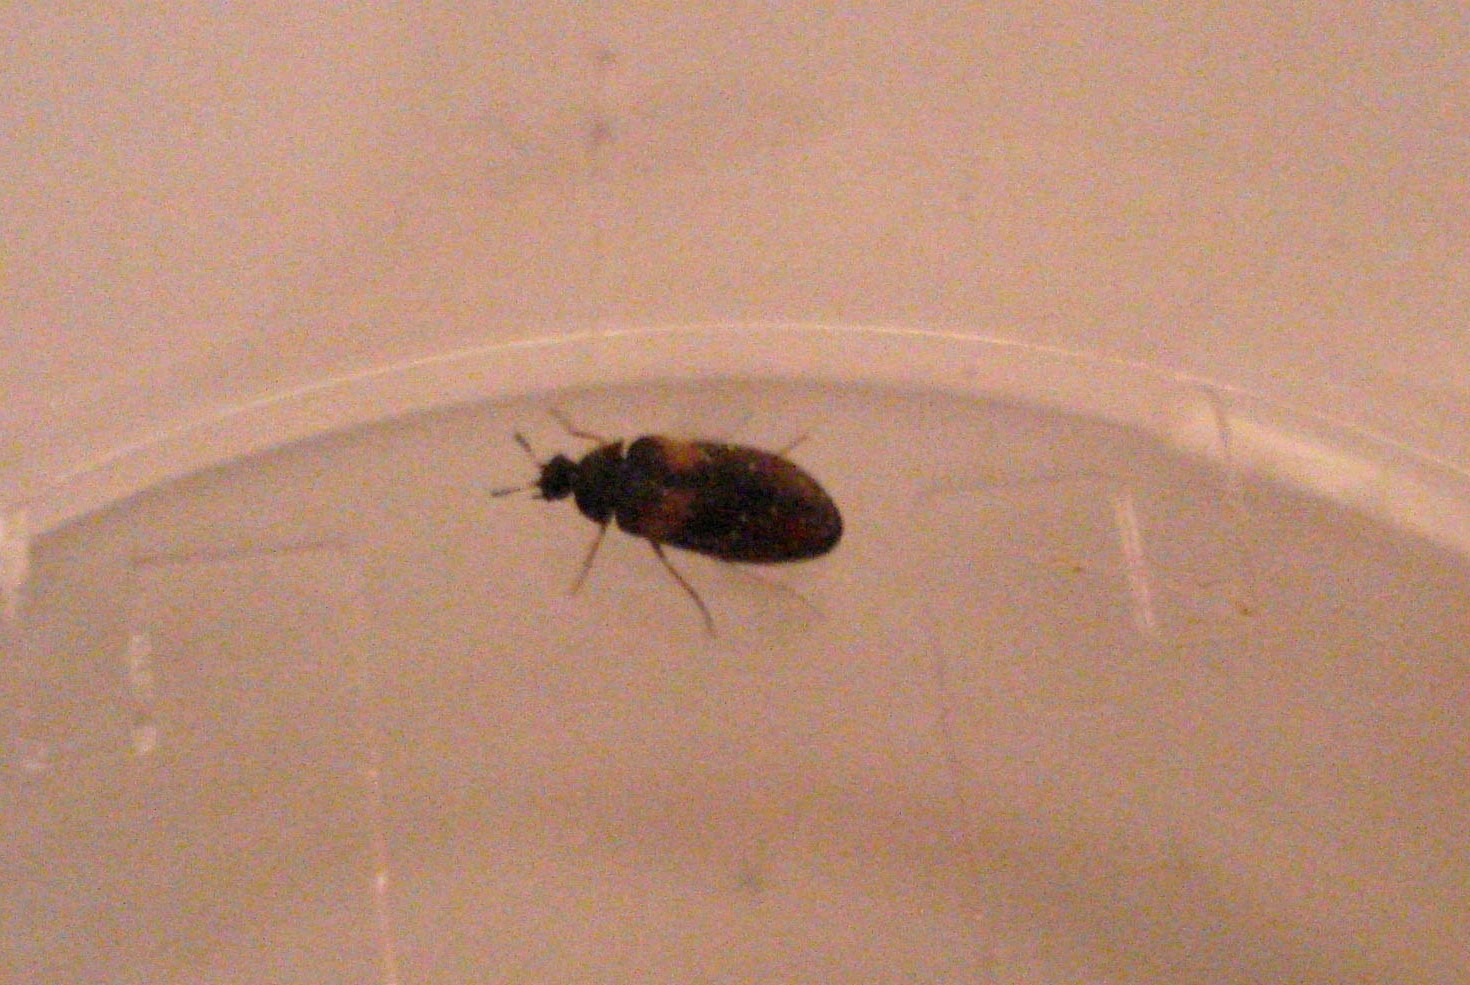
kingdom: Animalia
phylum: Arthropoda
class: Insecta
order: Coleoptera
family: Dermestidae
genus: Reesa
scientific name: Reesa vespulae
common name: Amerikansk klanner
